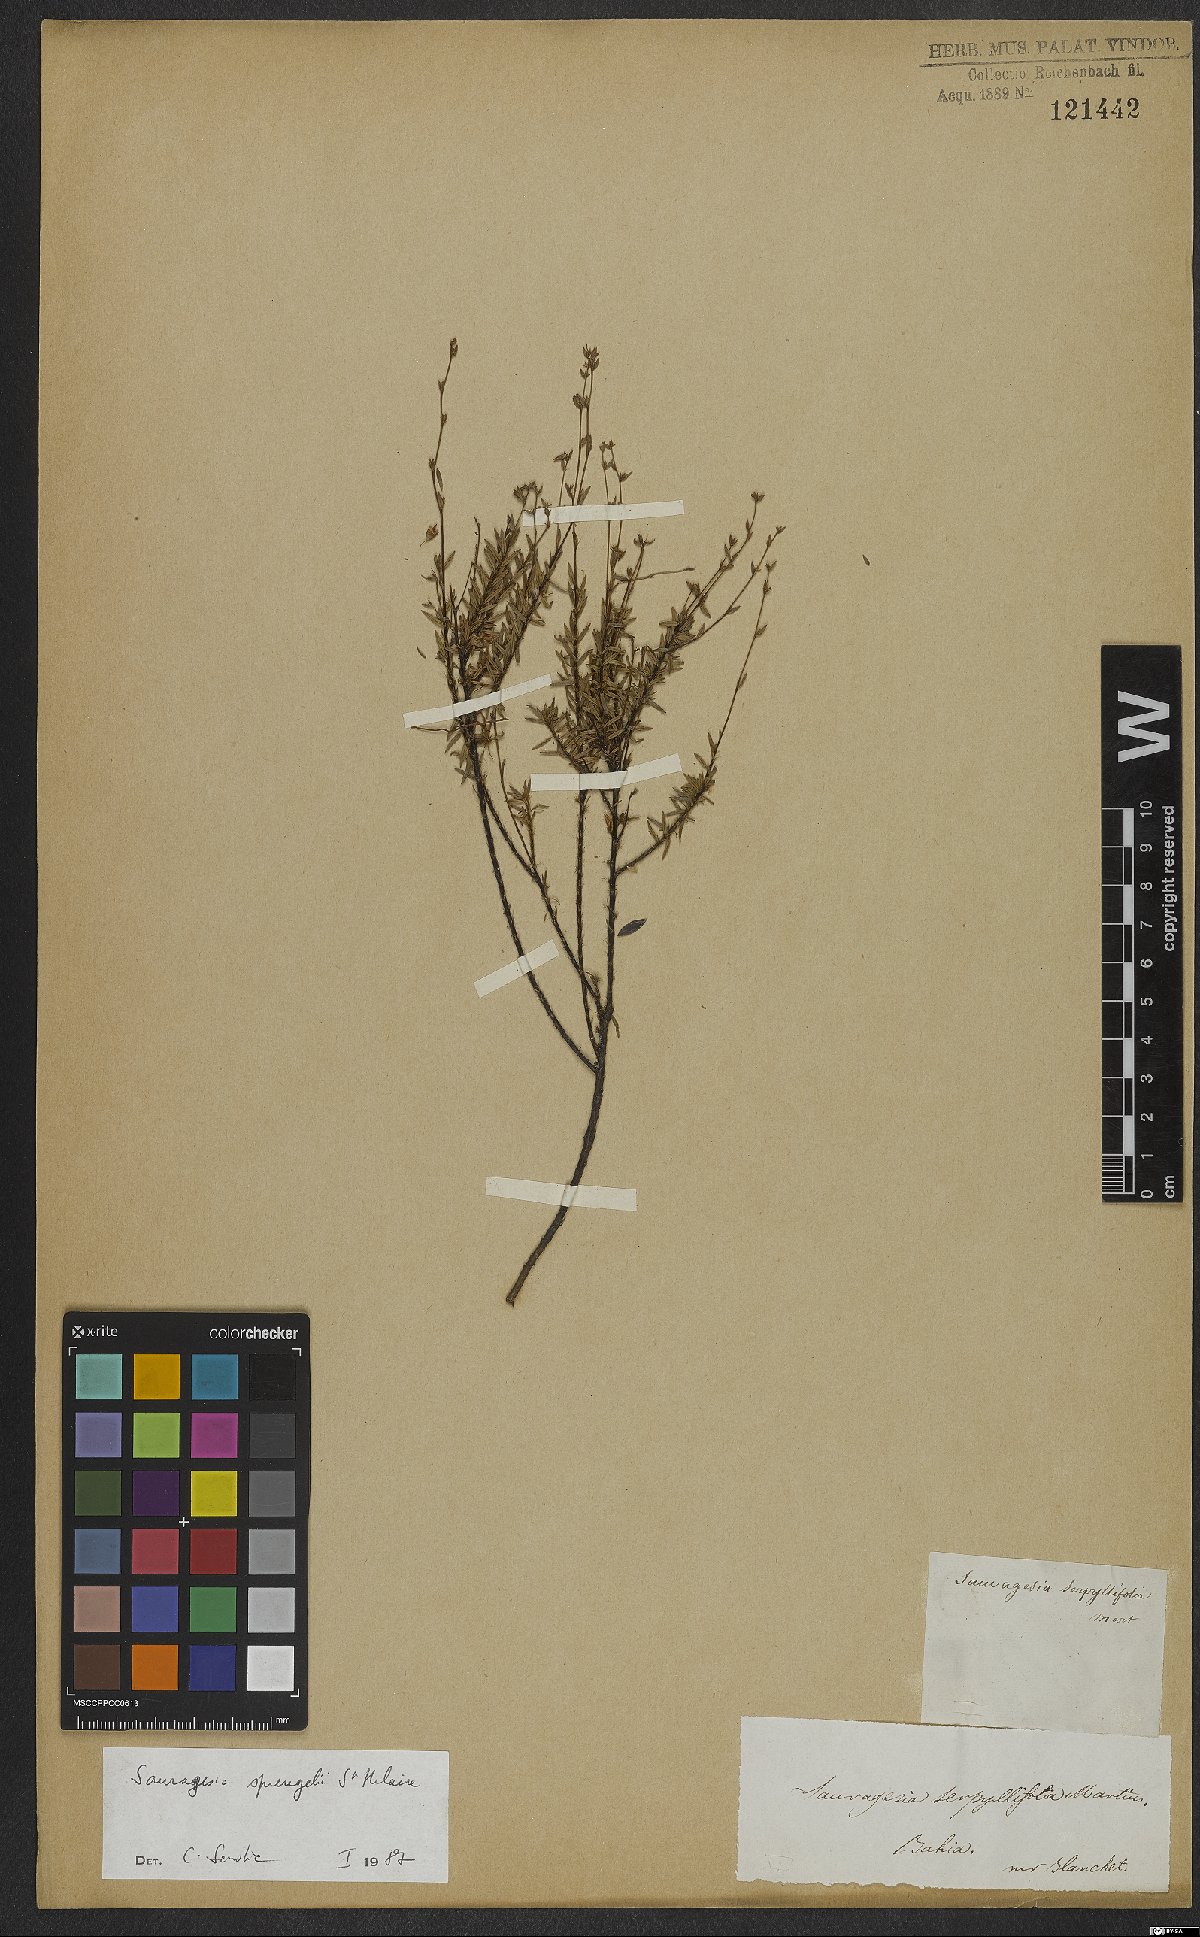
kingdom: Plantae
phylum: Tracheophyta
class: Magnoliopsida
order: Malpighiales
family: Ochnaceae
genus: Sauvagesia
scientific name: Sauvagesia tenella
